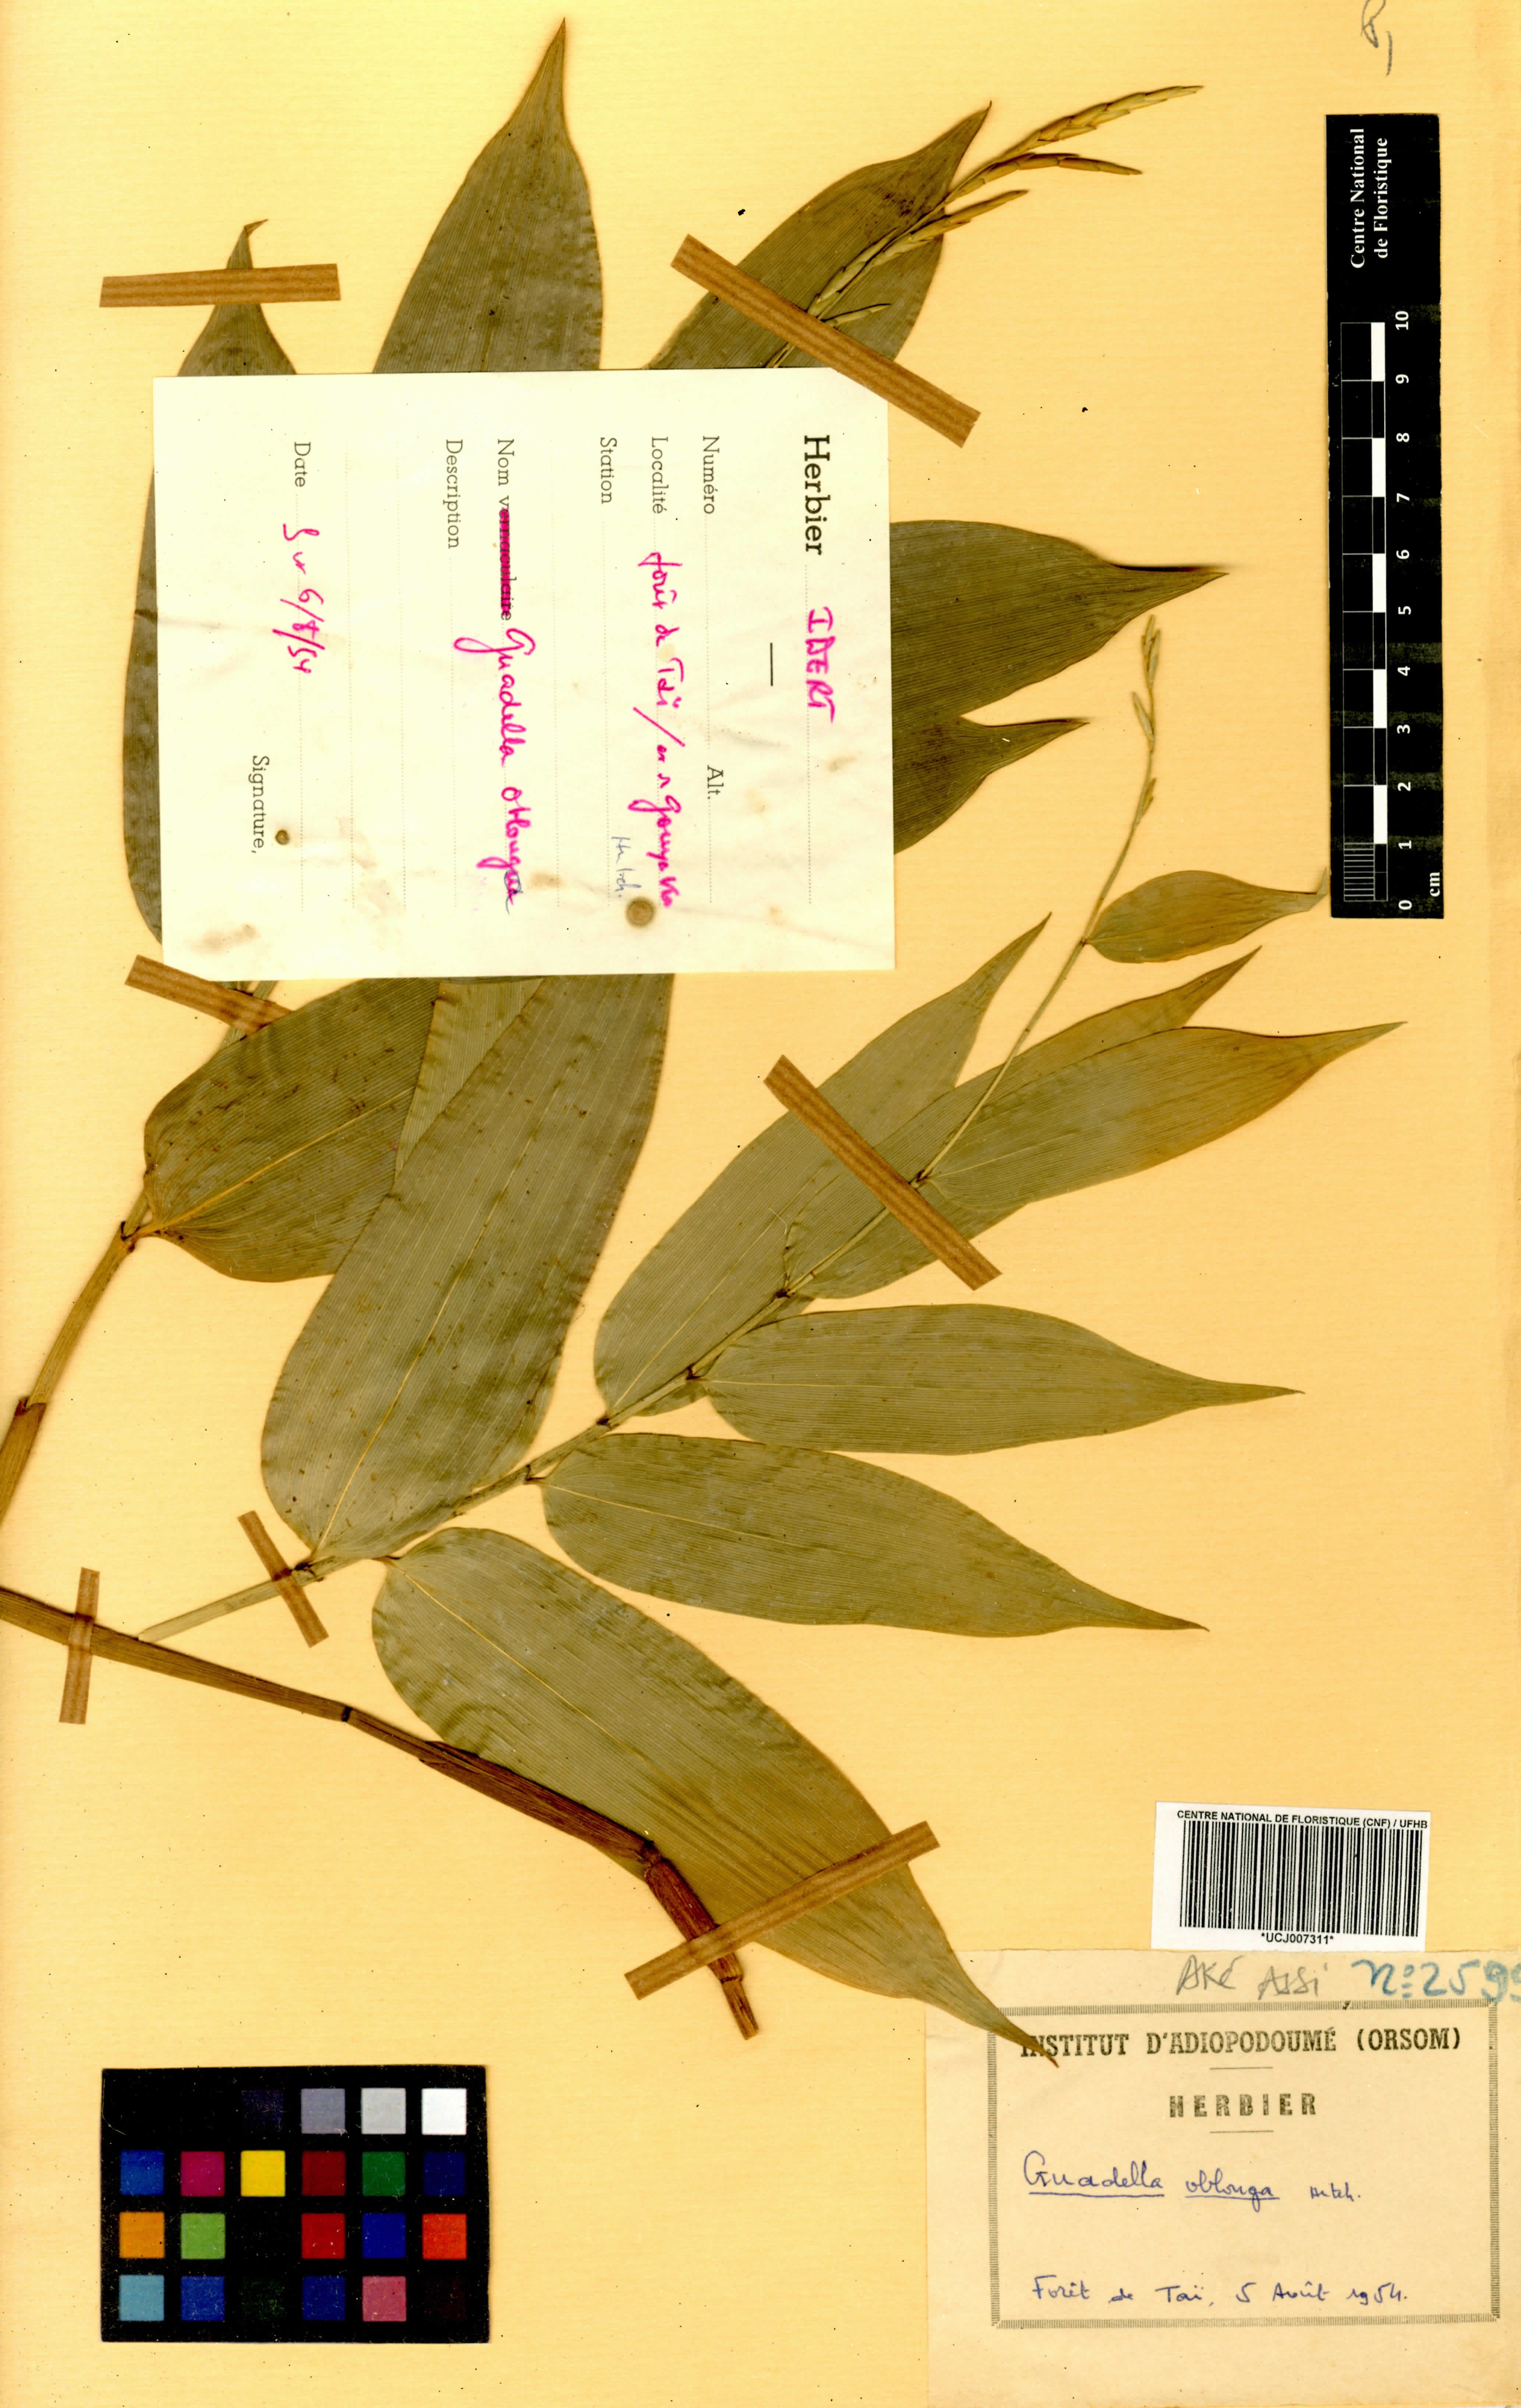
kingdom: Plantae
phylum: Tracheophyta
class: Liliopsida
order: Poales
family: Poaceae
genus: Guaduella
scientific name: Guaduella oblonga
